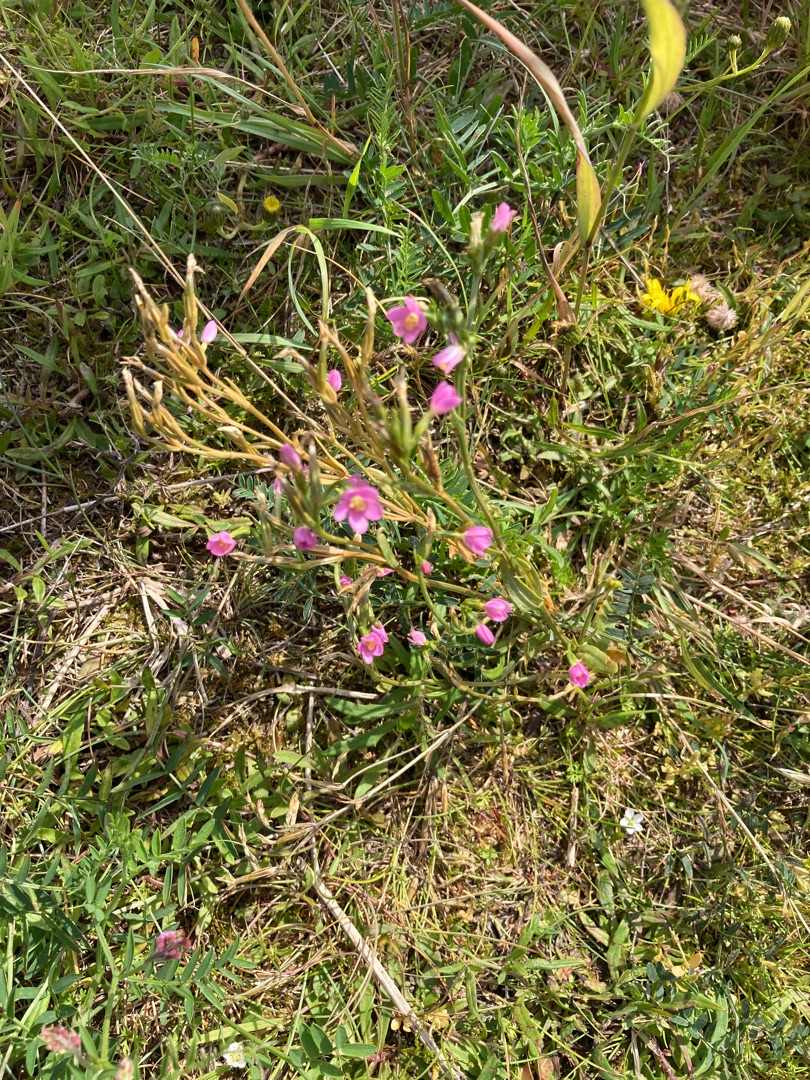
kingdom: Plantae
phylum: Tracheophyta
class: Magnoliopsida
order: Gentianales
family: Gentianaceae
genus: Centaurium
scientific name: Centaurium littorale
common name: Strand-tusindgylden
